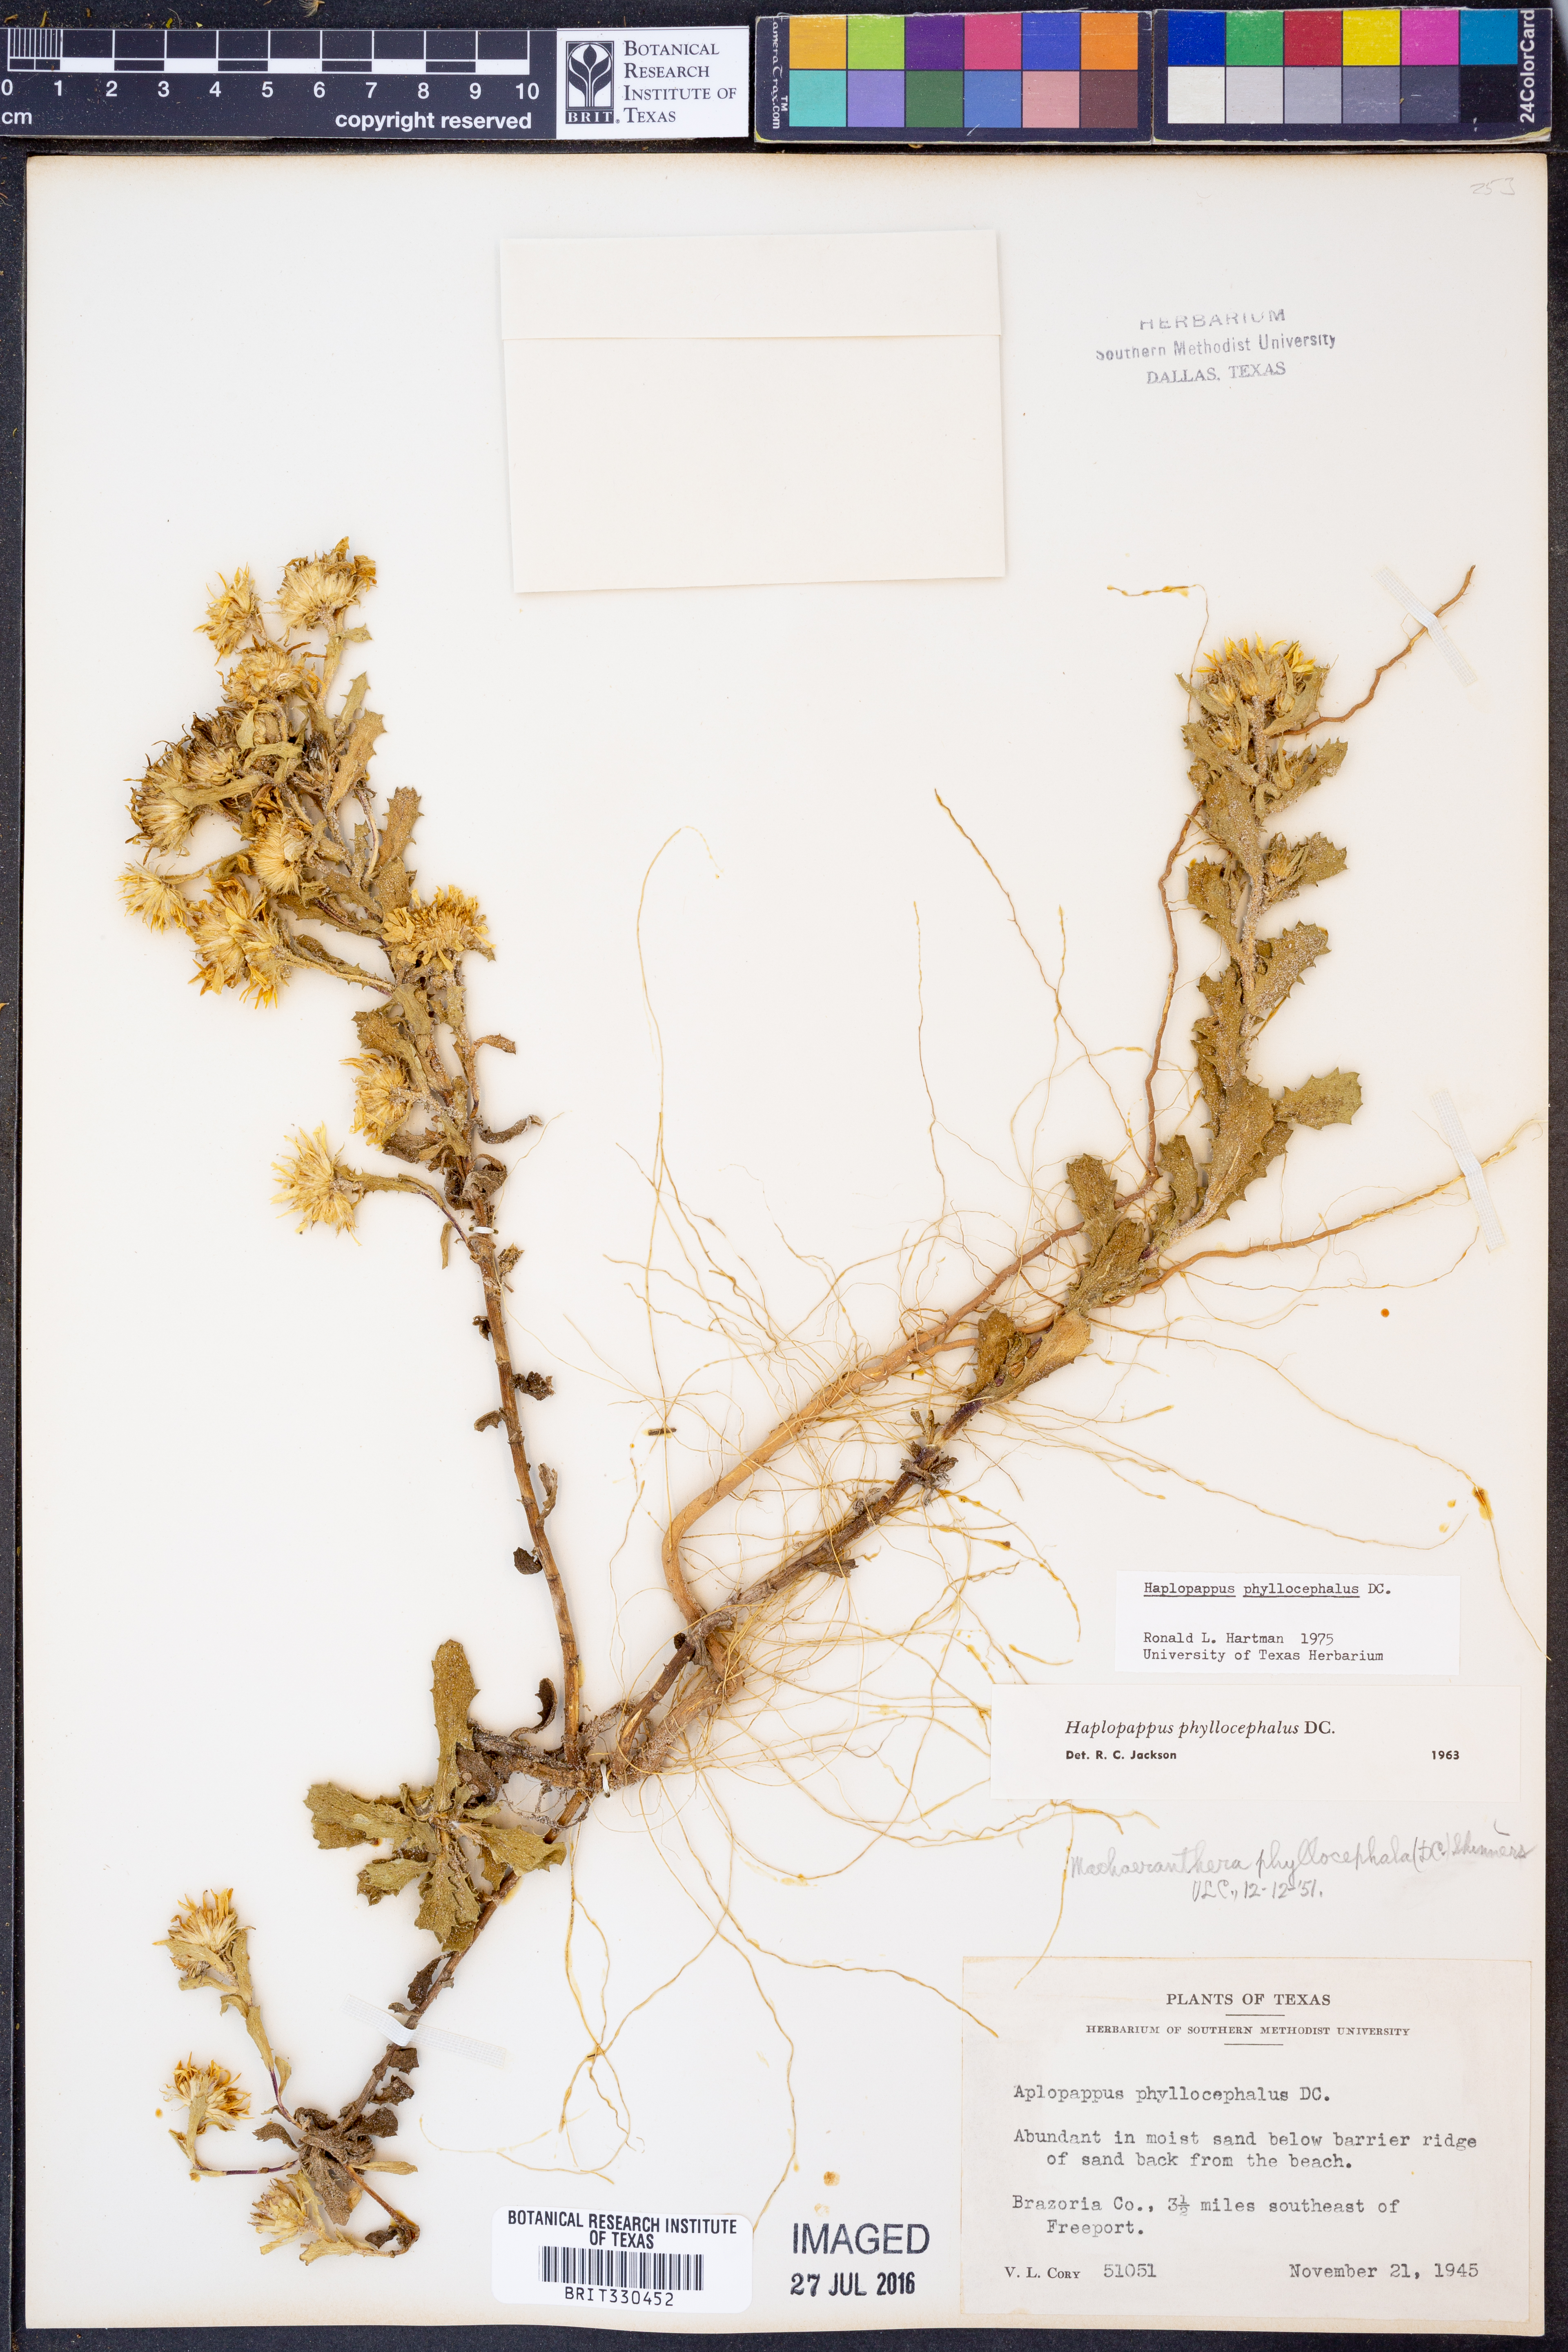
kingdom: Plantae
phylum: Tracheophyta
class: Magnoliopsida
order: Asterales
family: Asteraceae
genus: Rayjacksonia
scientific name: Rayjacksonia phyllocephala
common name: Gulf coast camphor daisy
